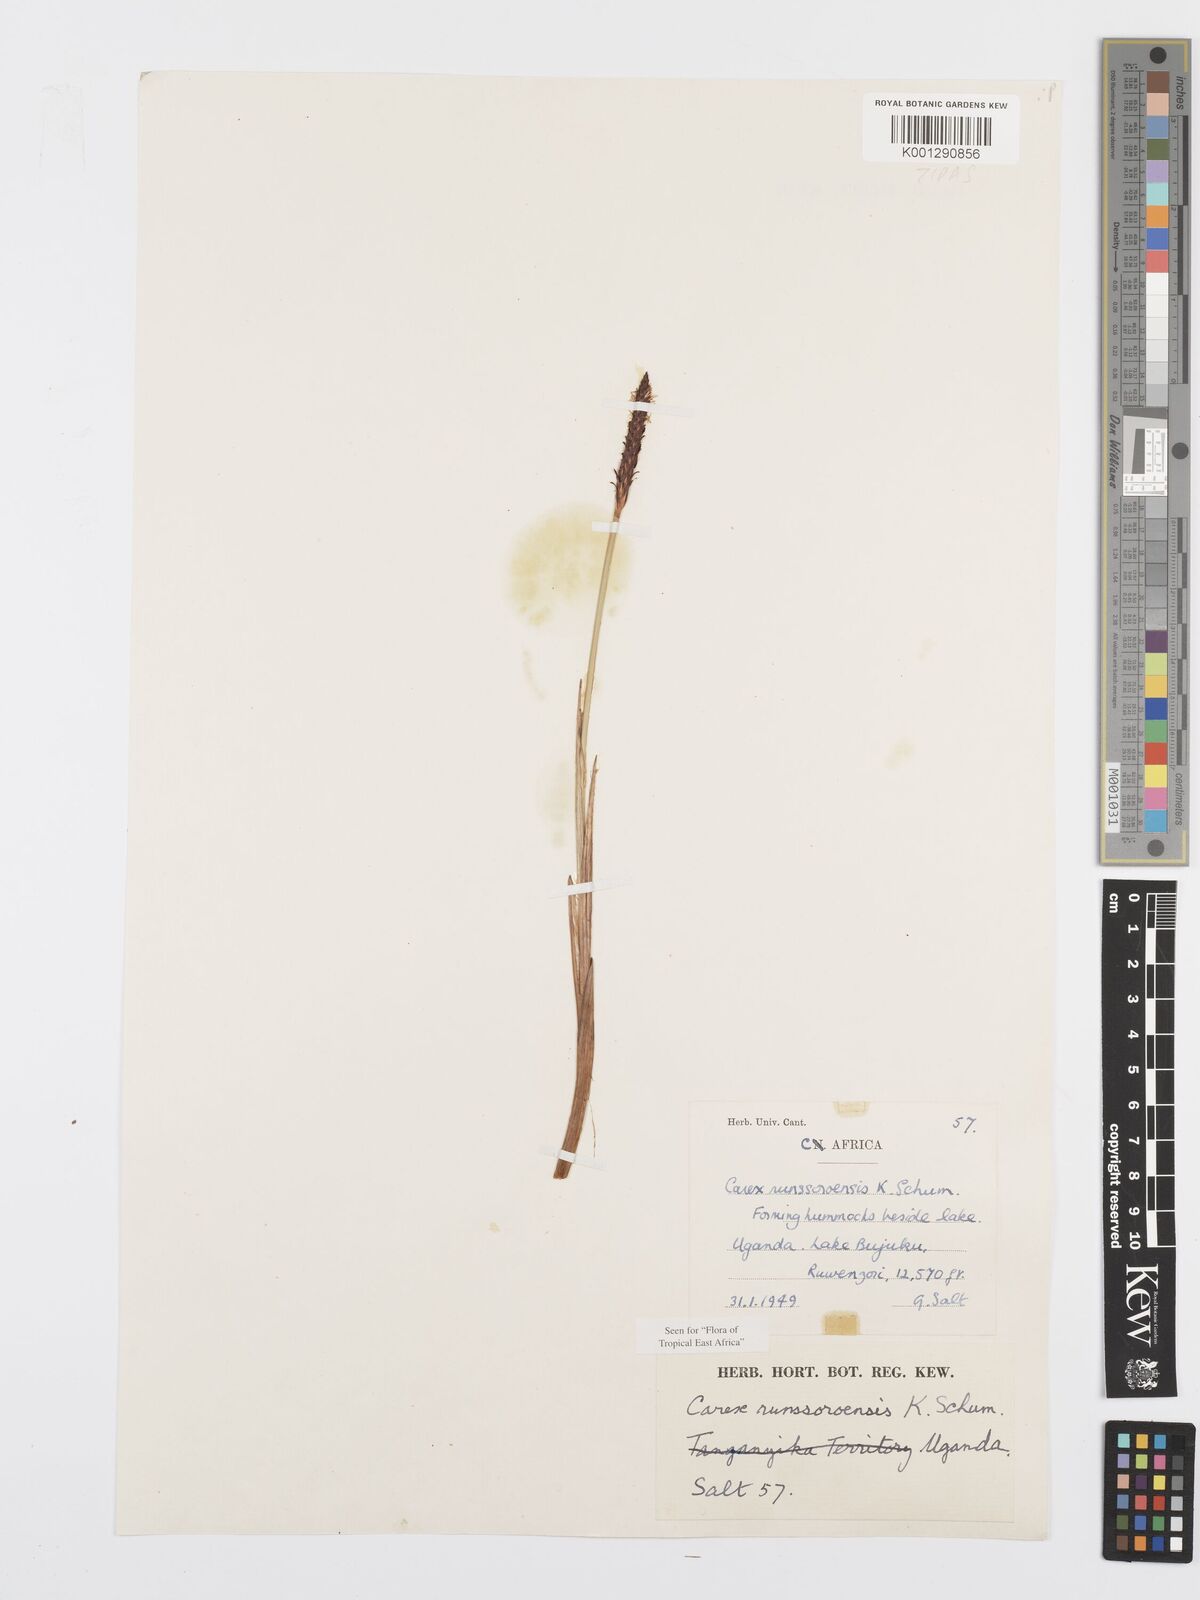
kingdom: Plantae
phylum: Tracheophyta
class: Liliopsida
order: Poales
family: Cyperaceae
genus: Carex
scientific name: Carex runssoroensis
